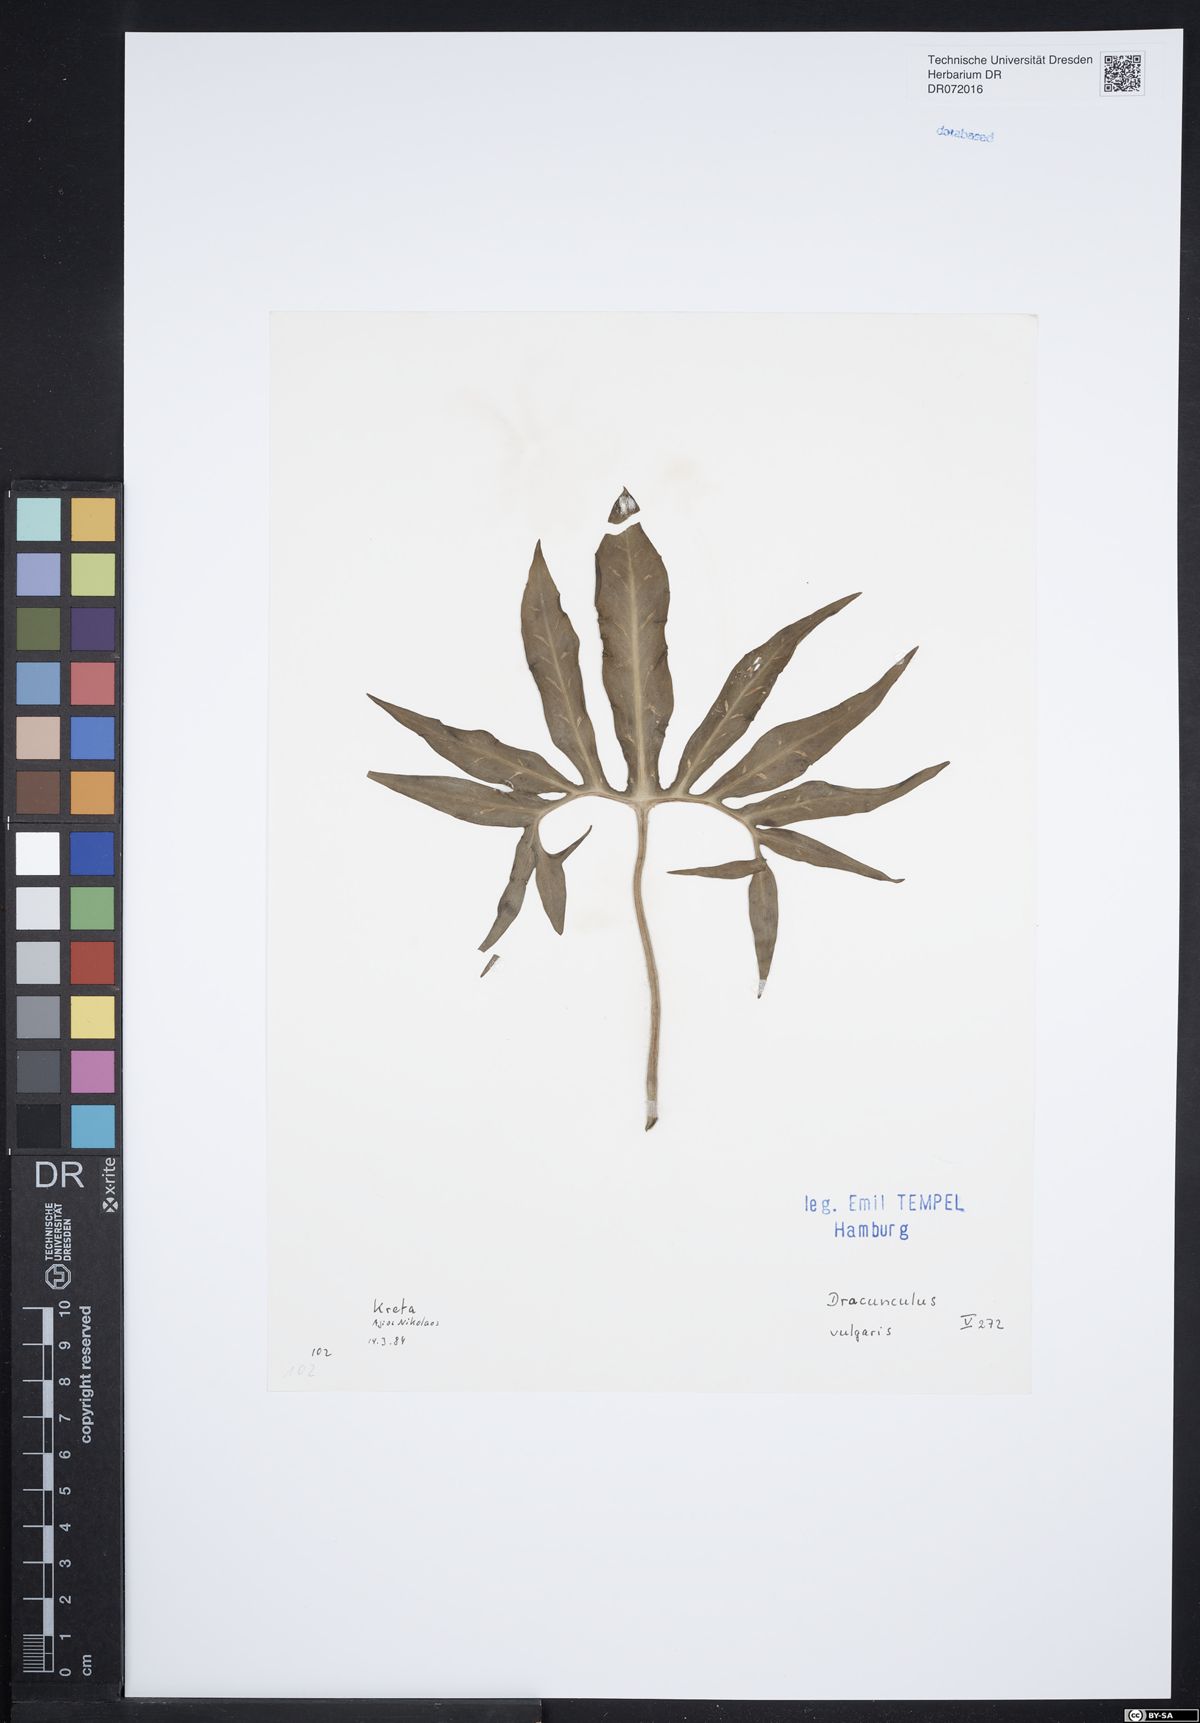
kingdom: Plantae
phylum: Tracheophyta
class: Liliopsida
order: Alismatales
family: Araceae
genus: Dracunculus
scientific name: Dracunculus vulgaris
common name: Dragon arum
